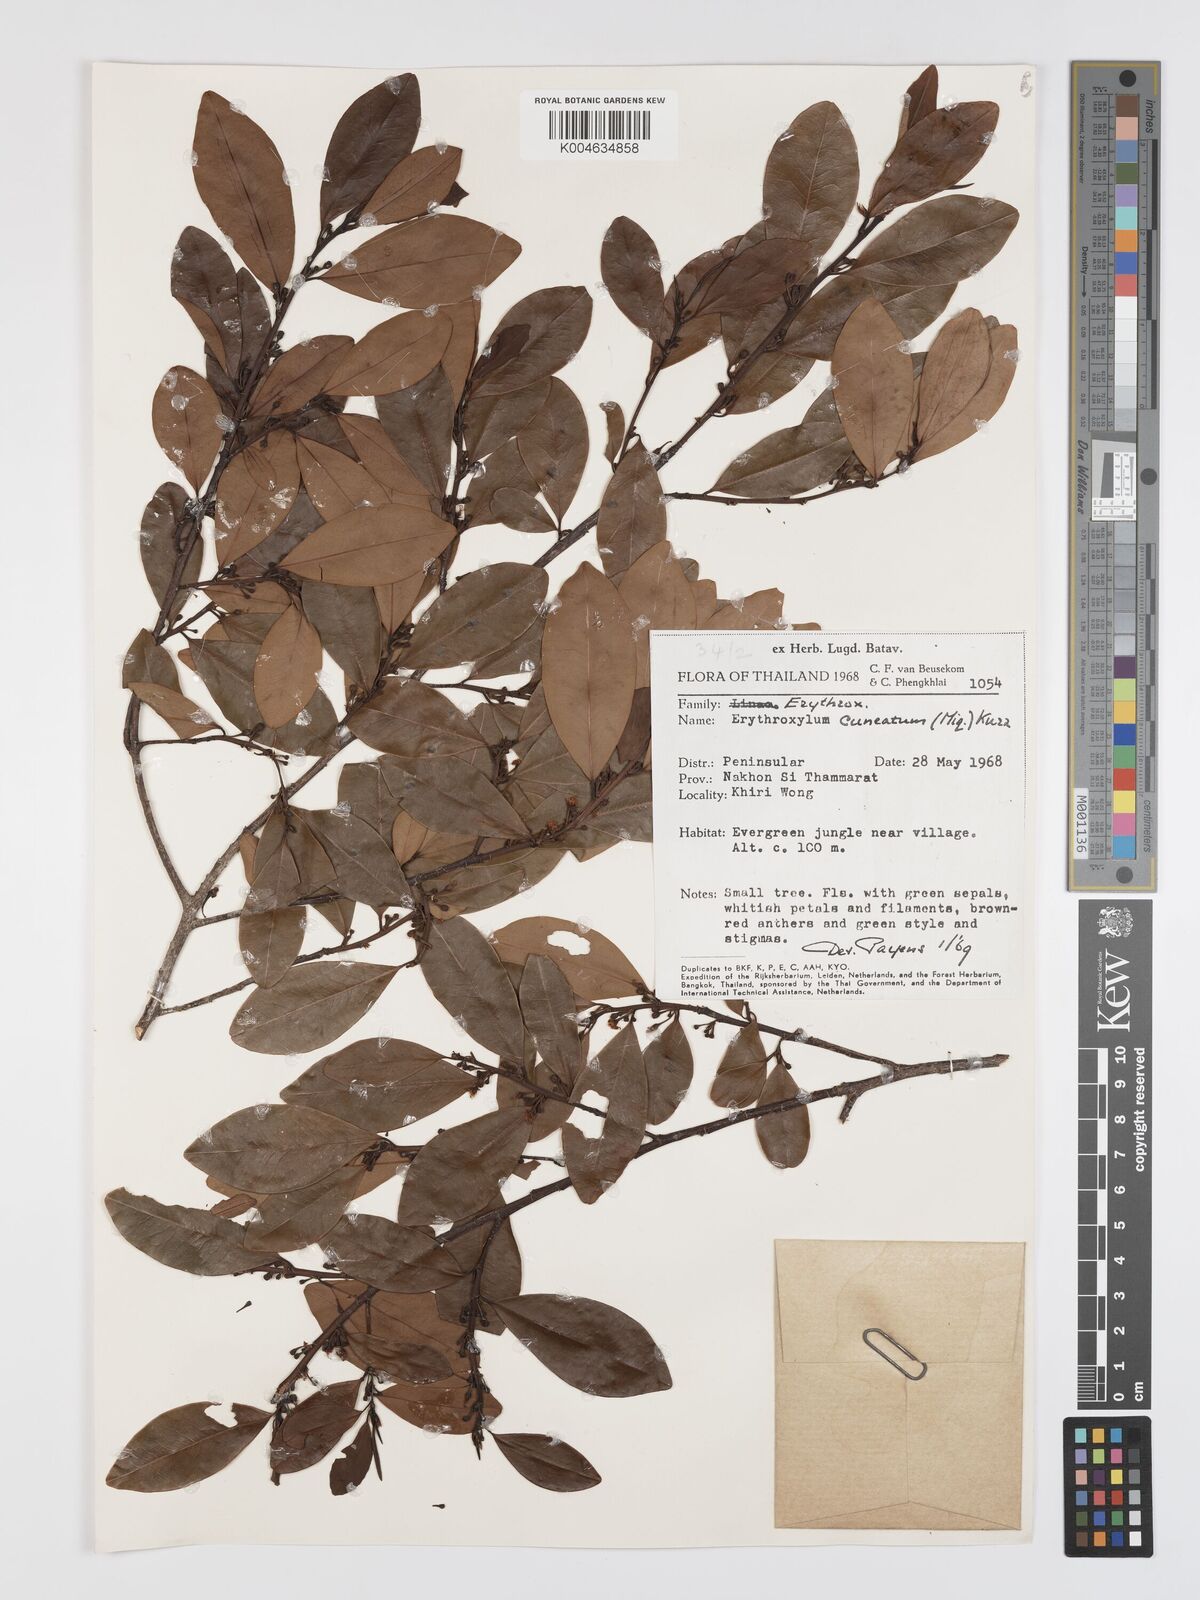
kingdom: Plantae
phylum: Tracheophyta
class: Magnoliopsida
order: Malpighiales
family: Erythroxylaceae
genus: Erythroxylum
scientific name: Erythroxylum cuneatum
